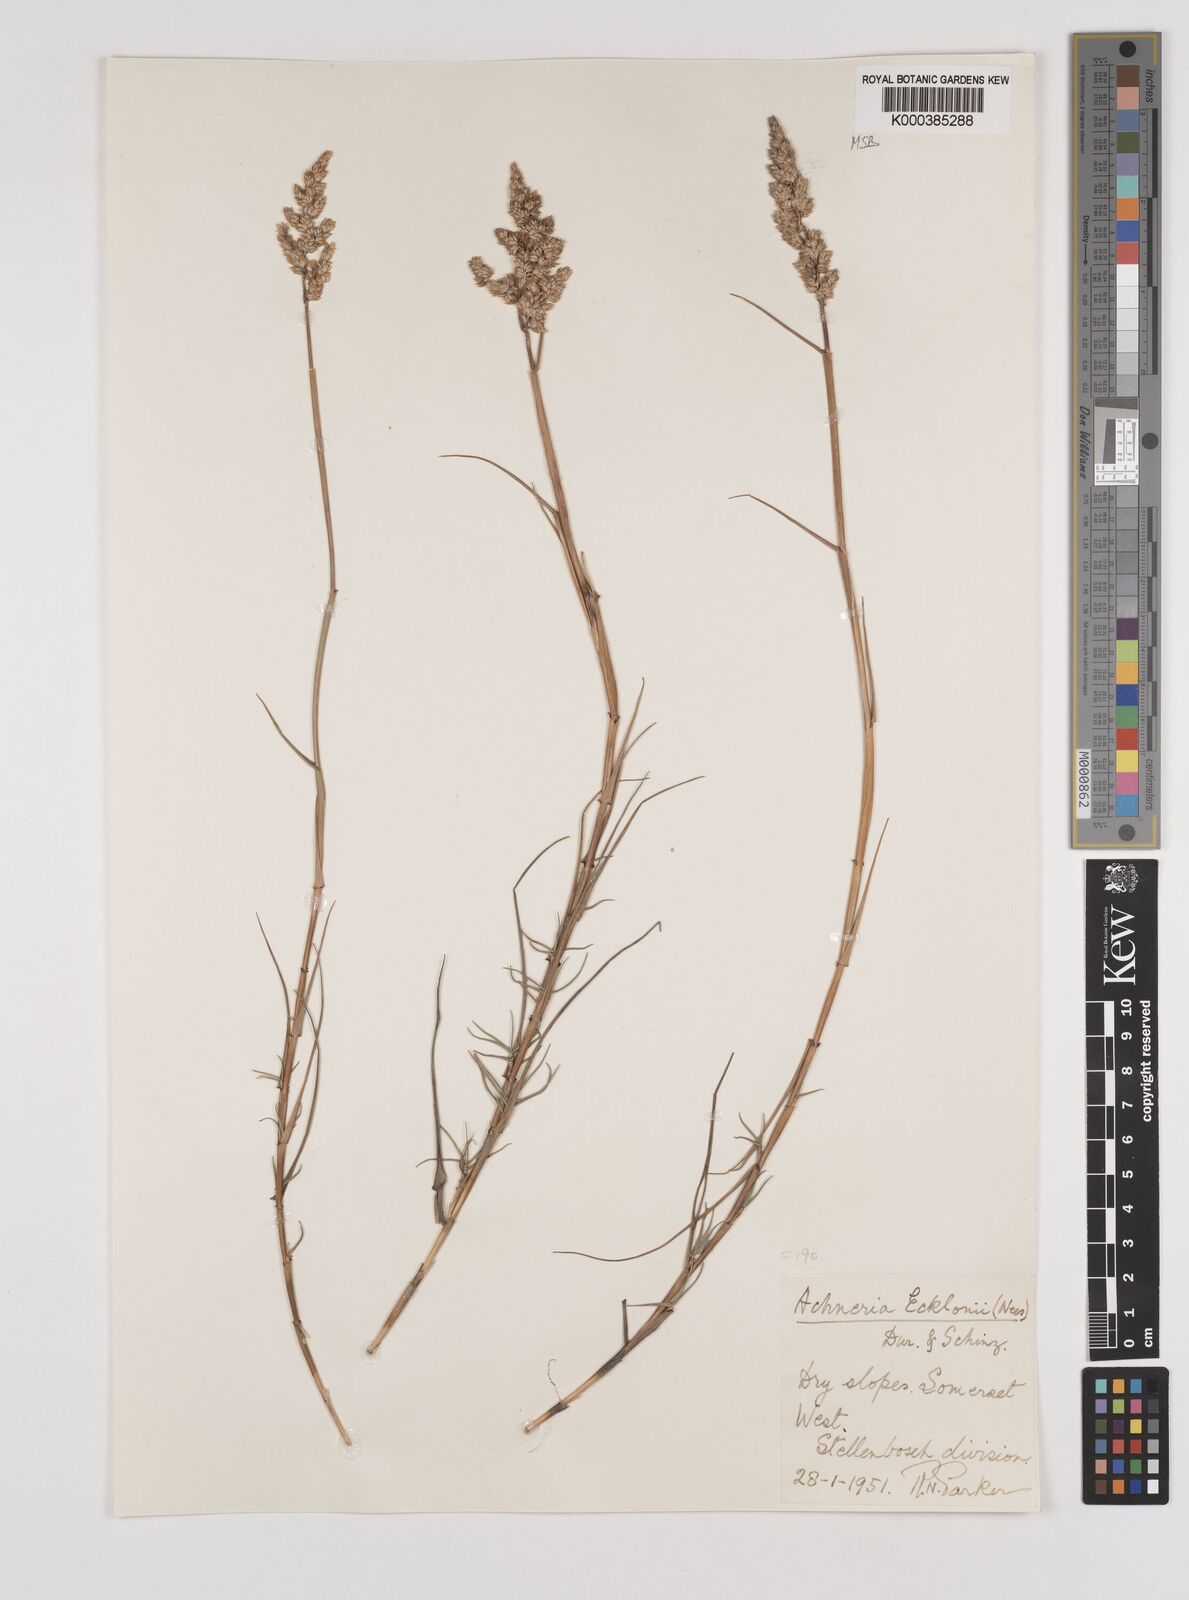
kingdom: Plantae
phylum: Tracheophyta
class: Liliopsida
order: Poales
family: Poaceae
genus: Pentameris
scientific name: Pentameris ecklonii
